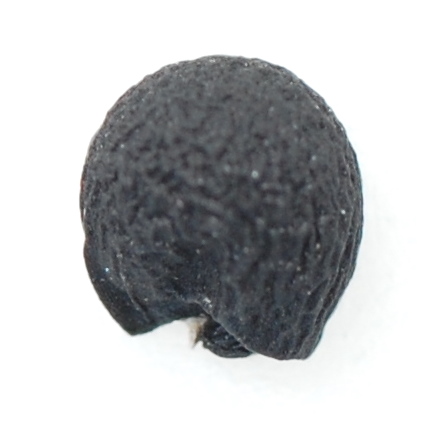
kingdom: Plantae
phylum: Tracheophyta
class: Liliopsida
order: Asparagales
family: Amaryllidaceae
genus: Allium
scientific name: Allium ursinum
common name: Ramsons
